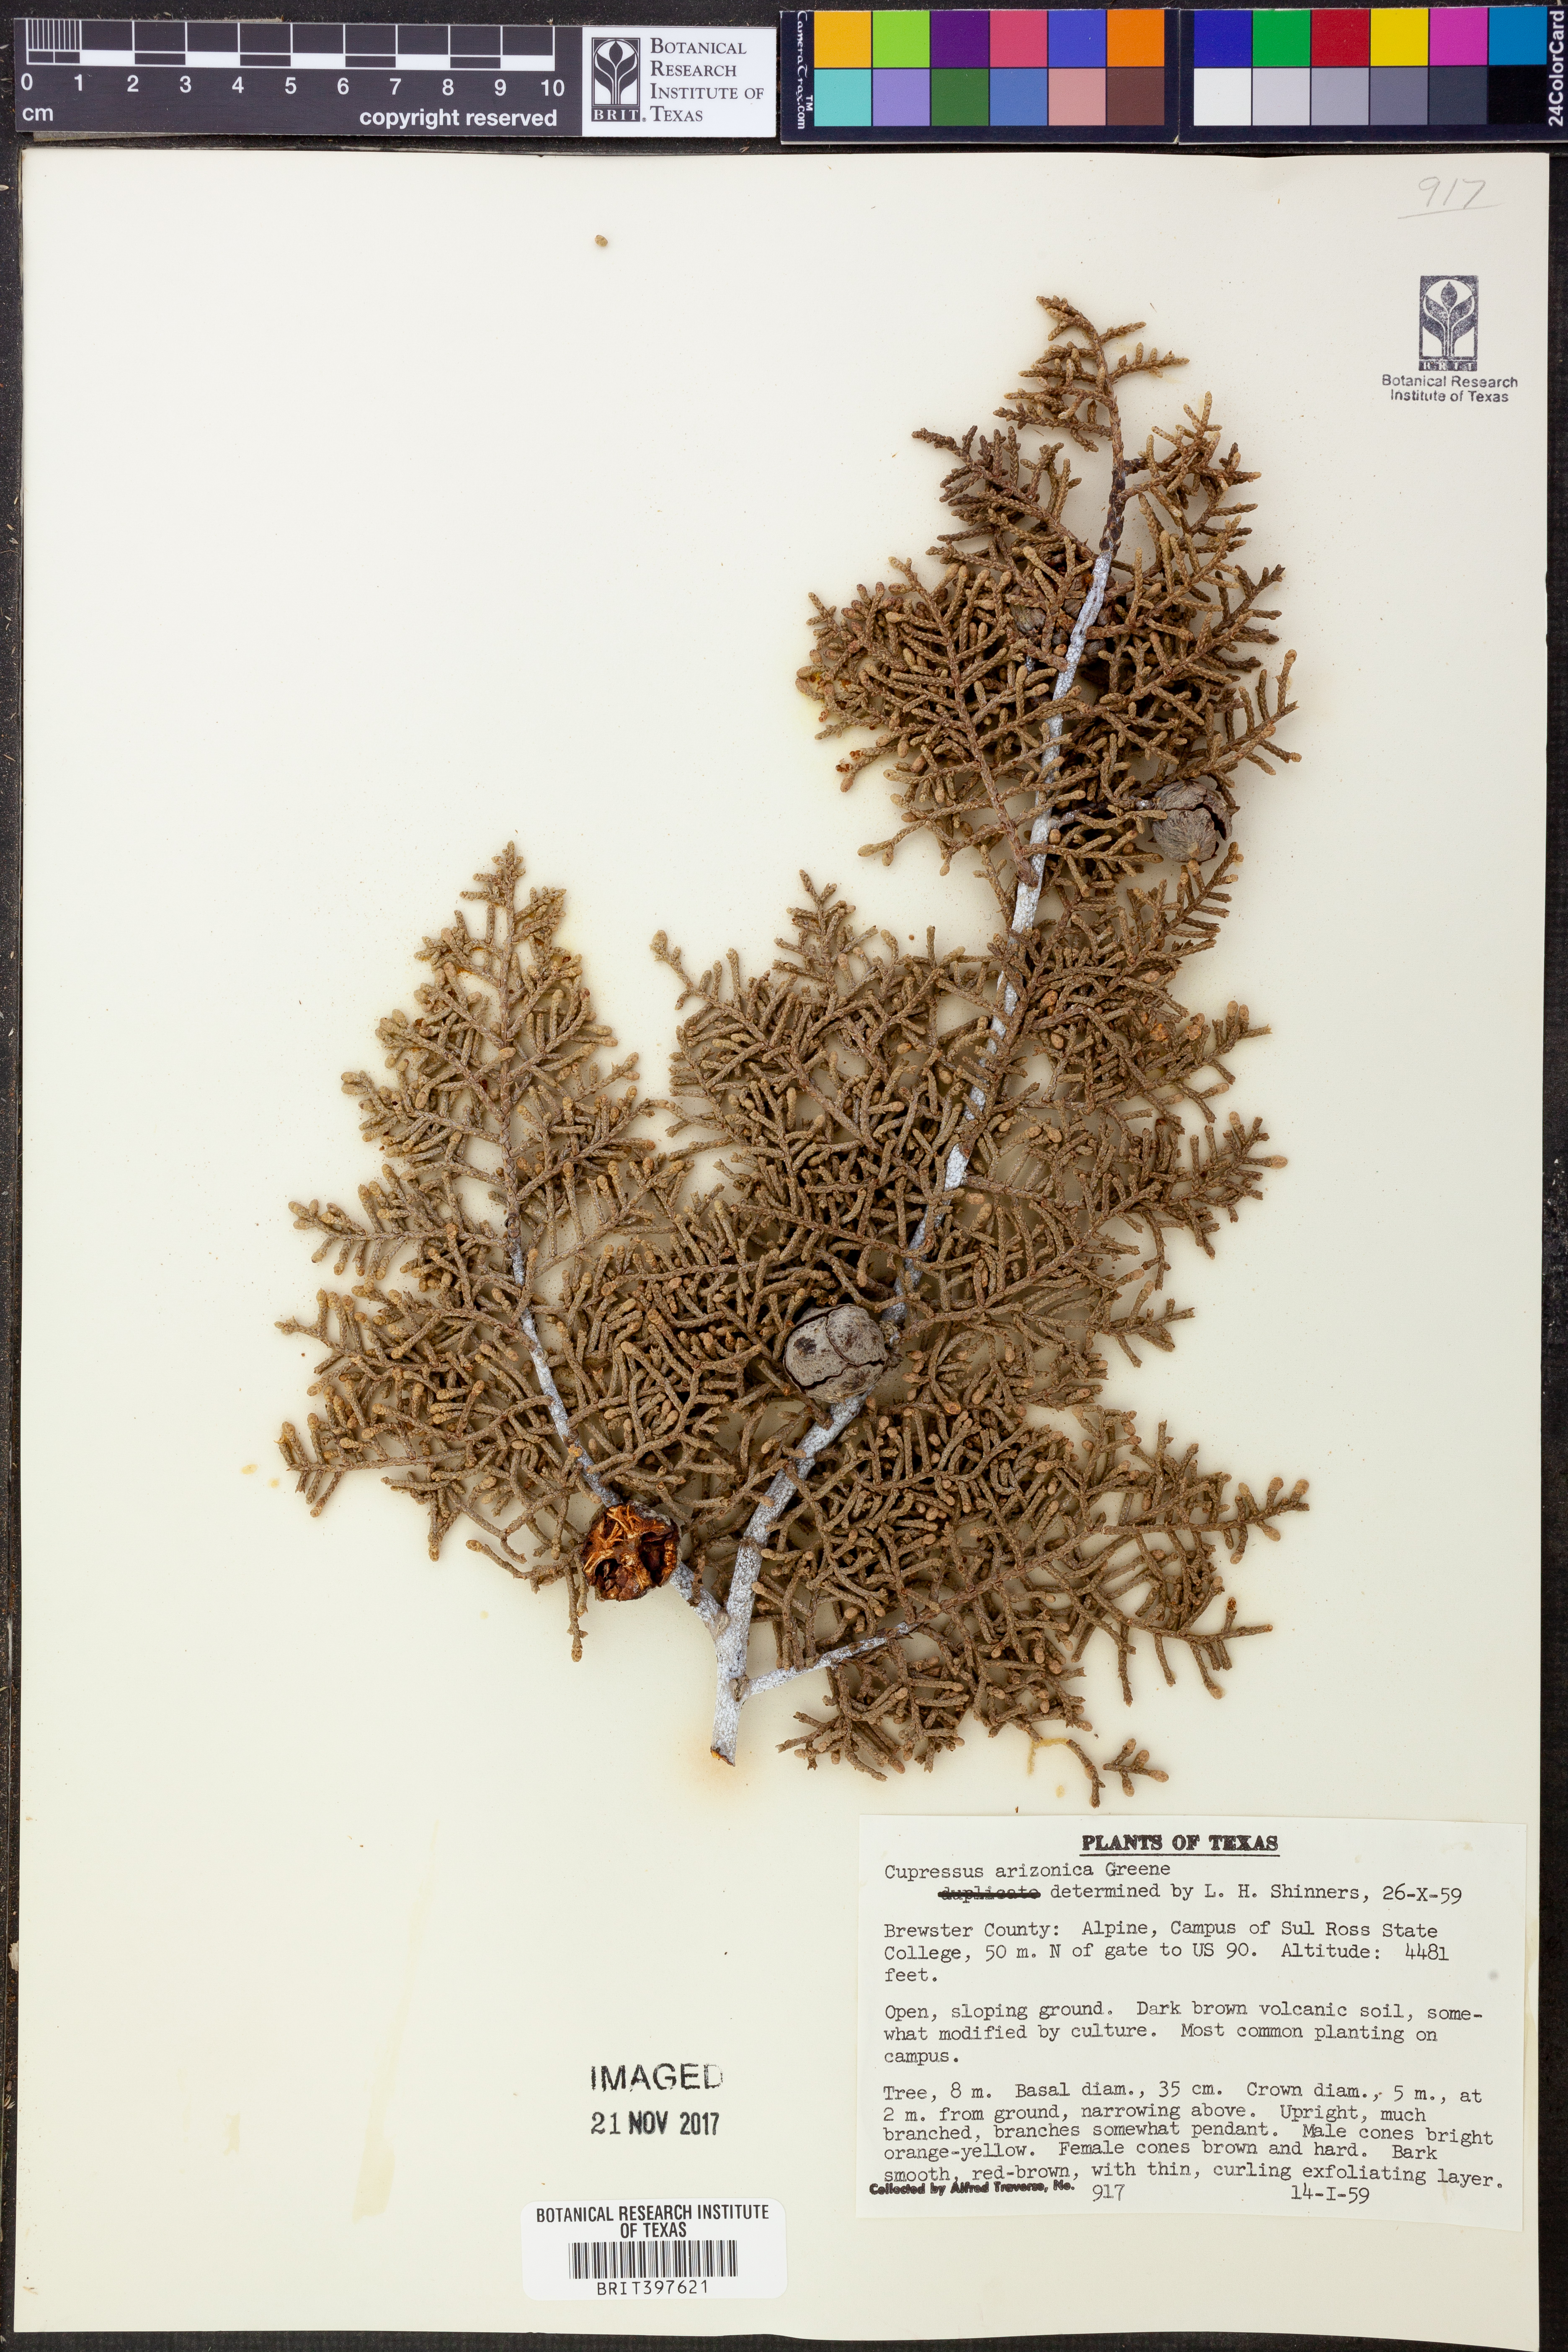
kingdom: Plantae
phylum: Tracheophyta
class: Pinopsida
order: Pinales
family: Cupressaceae
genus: Cupressus
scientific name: Cupressus arizonica
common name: Arizona cypress
